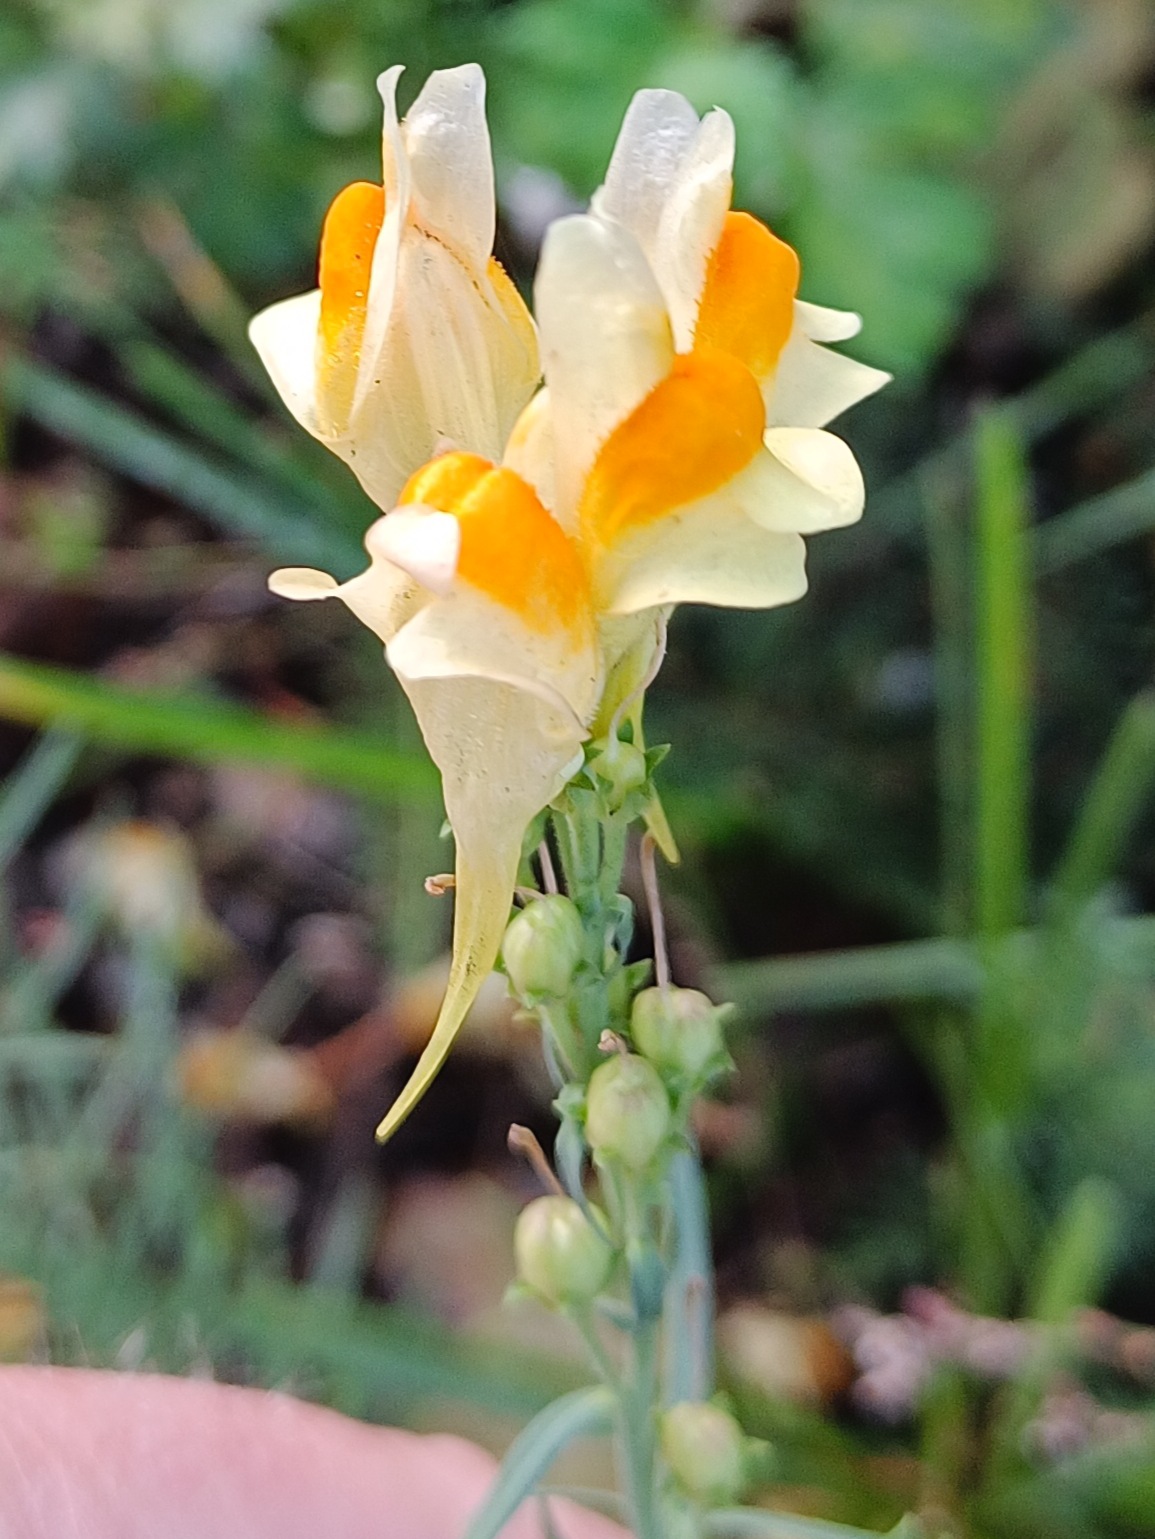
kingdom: Plantae
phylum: Tracheophyta
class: Magnoliopsida
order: Lamiales
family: Plantaginaceae
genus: Linaria
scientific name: Linaria vulgaris
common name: Almindelig torskemund
